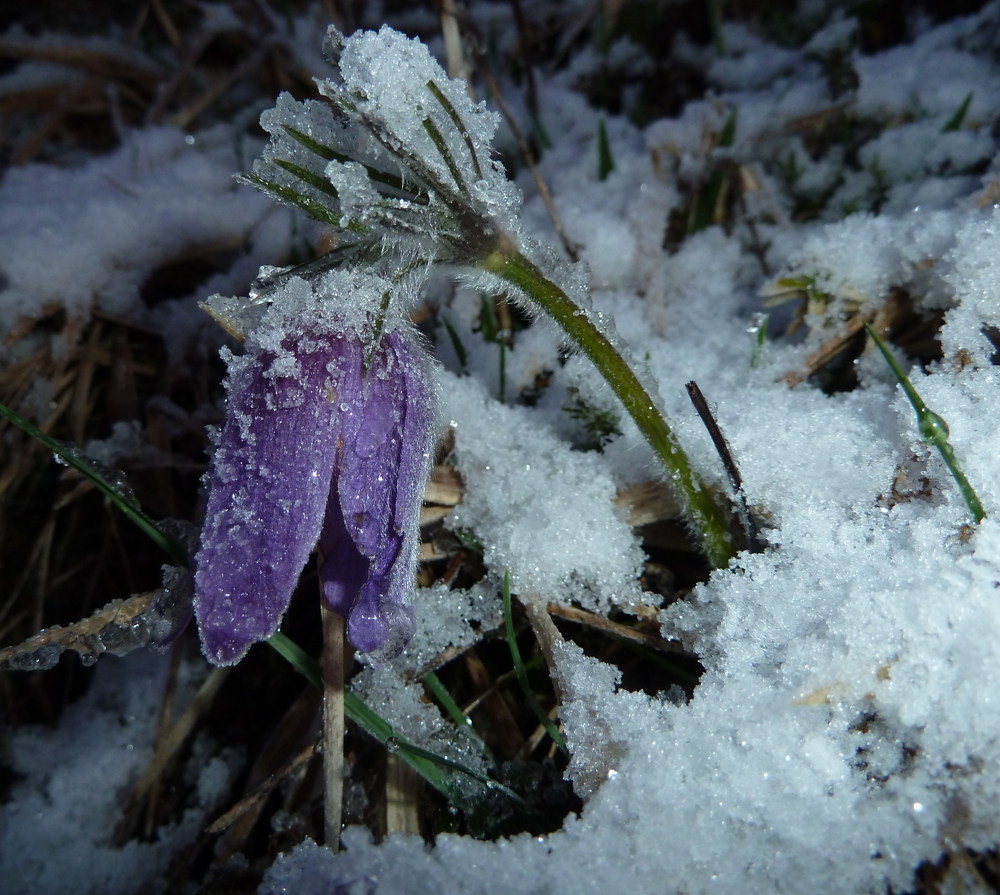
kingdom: Plantae
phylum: Tracheophyta
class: Magnoliopsida
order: Ranunculales
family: Ranunculaceae
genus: Pulsatilla
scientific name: Pulsatilla vulgaris
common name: Pasqueflower
